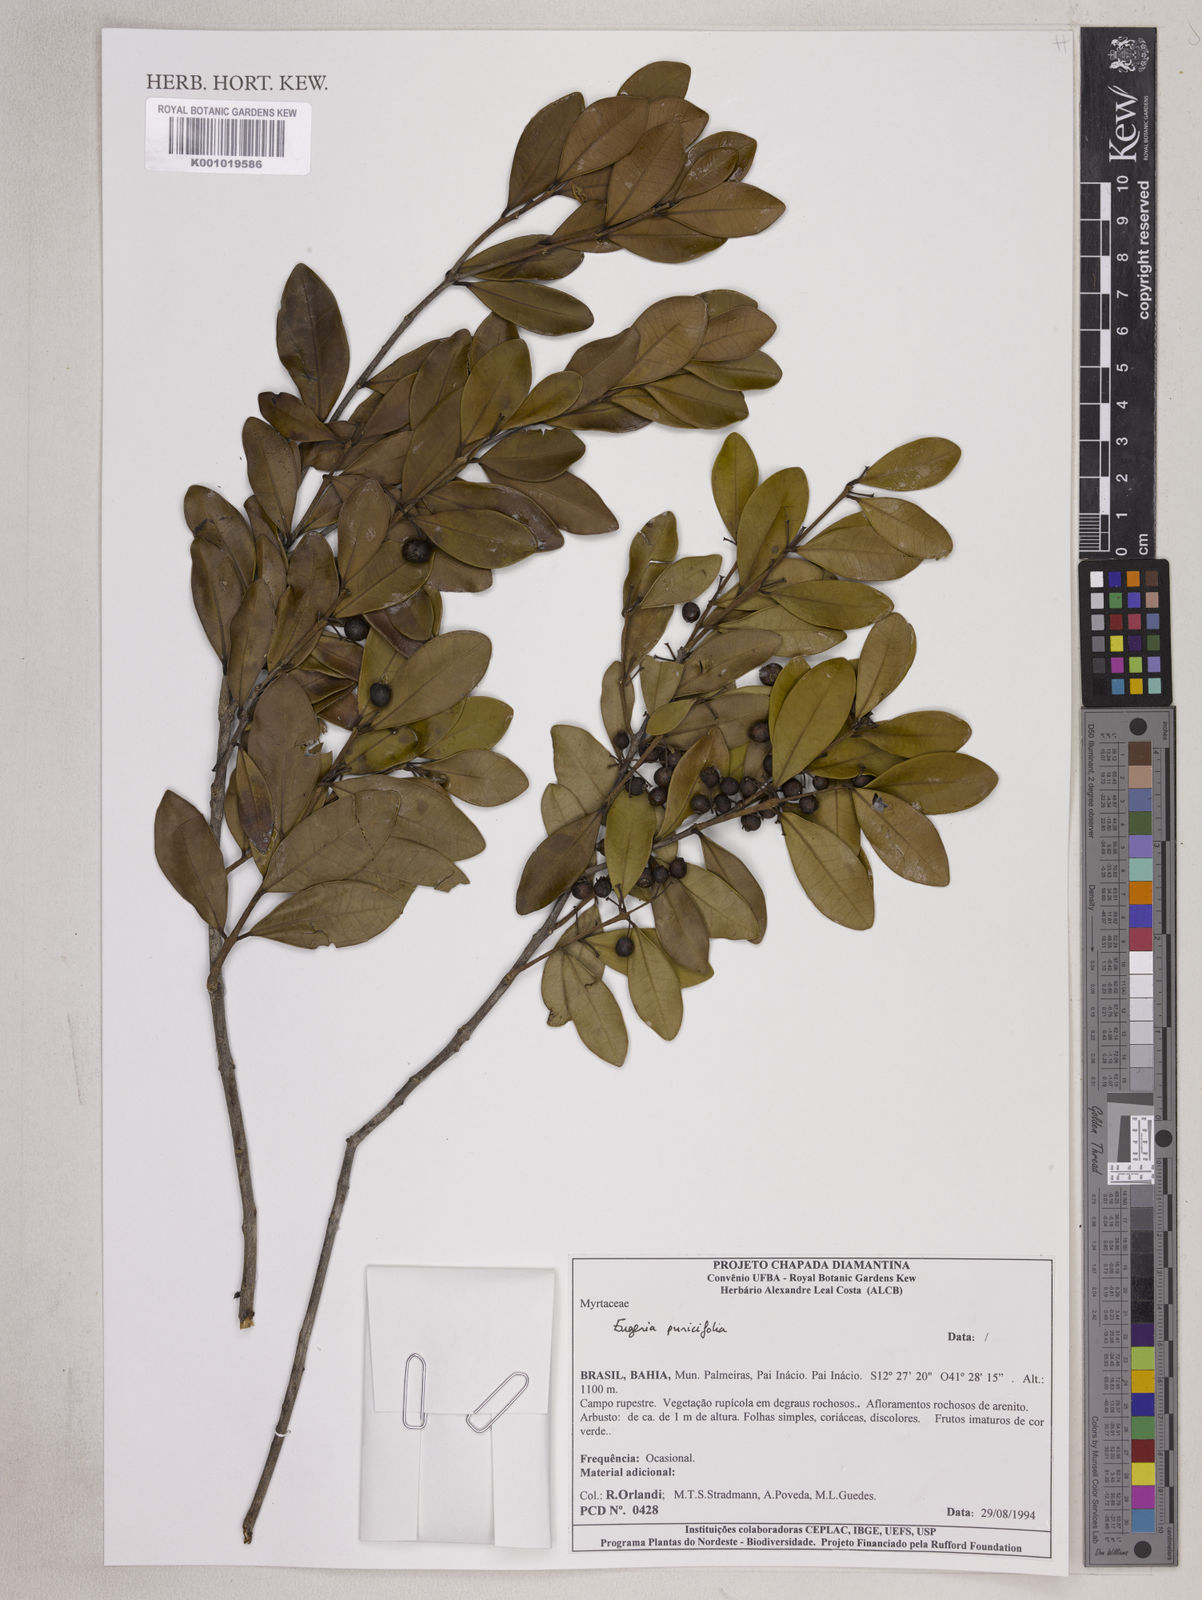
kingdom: Plantae
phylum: Tracheophyta
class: Magnoliopsida
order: Myrtales
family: Myrtaceae
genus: Eugenia
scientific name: Eugenia punicifolia
